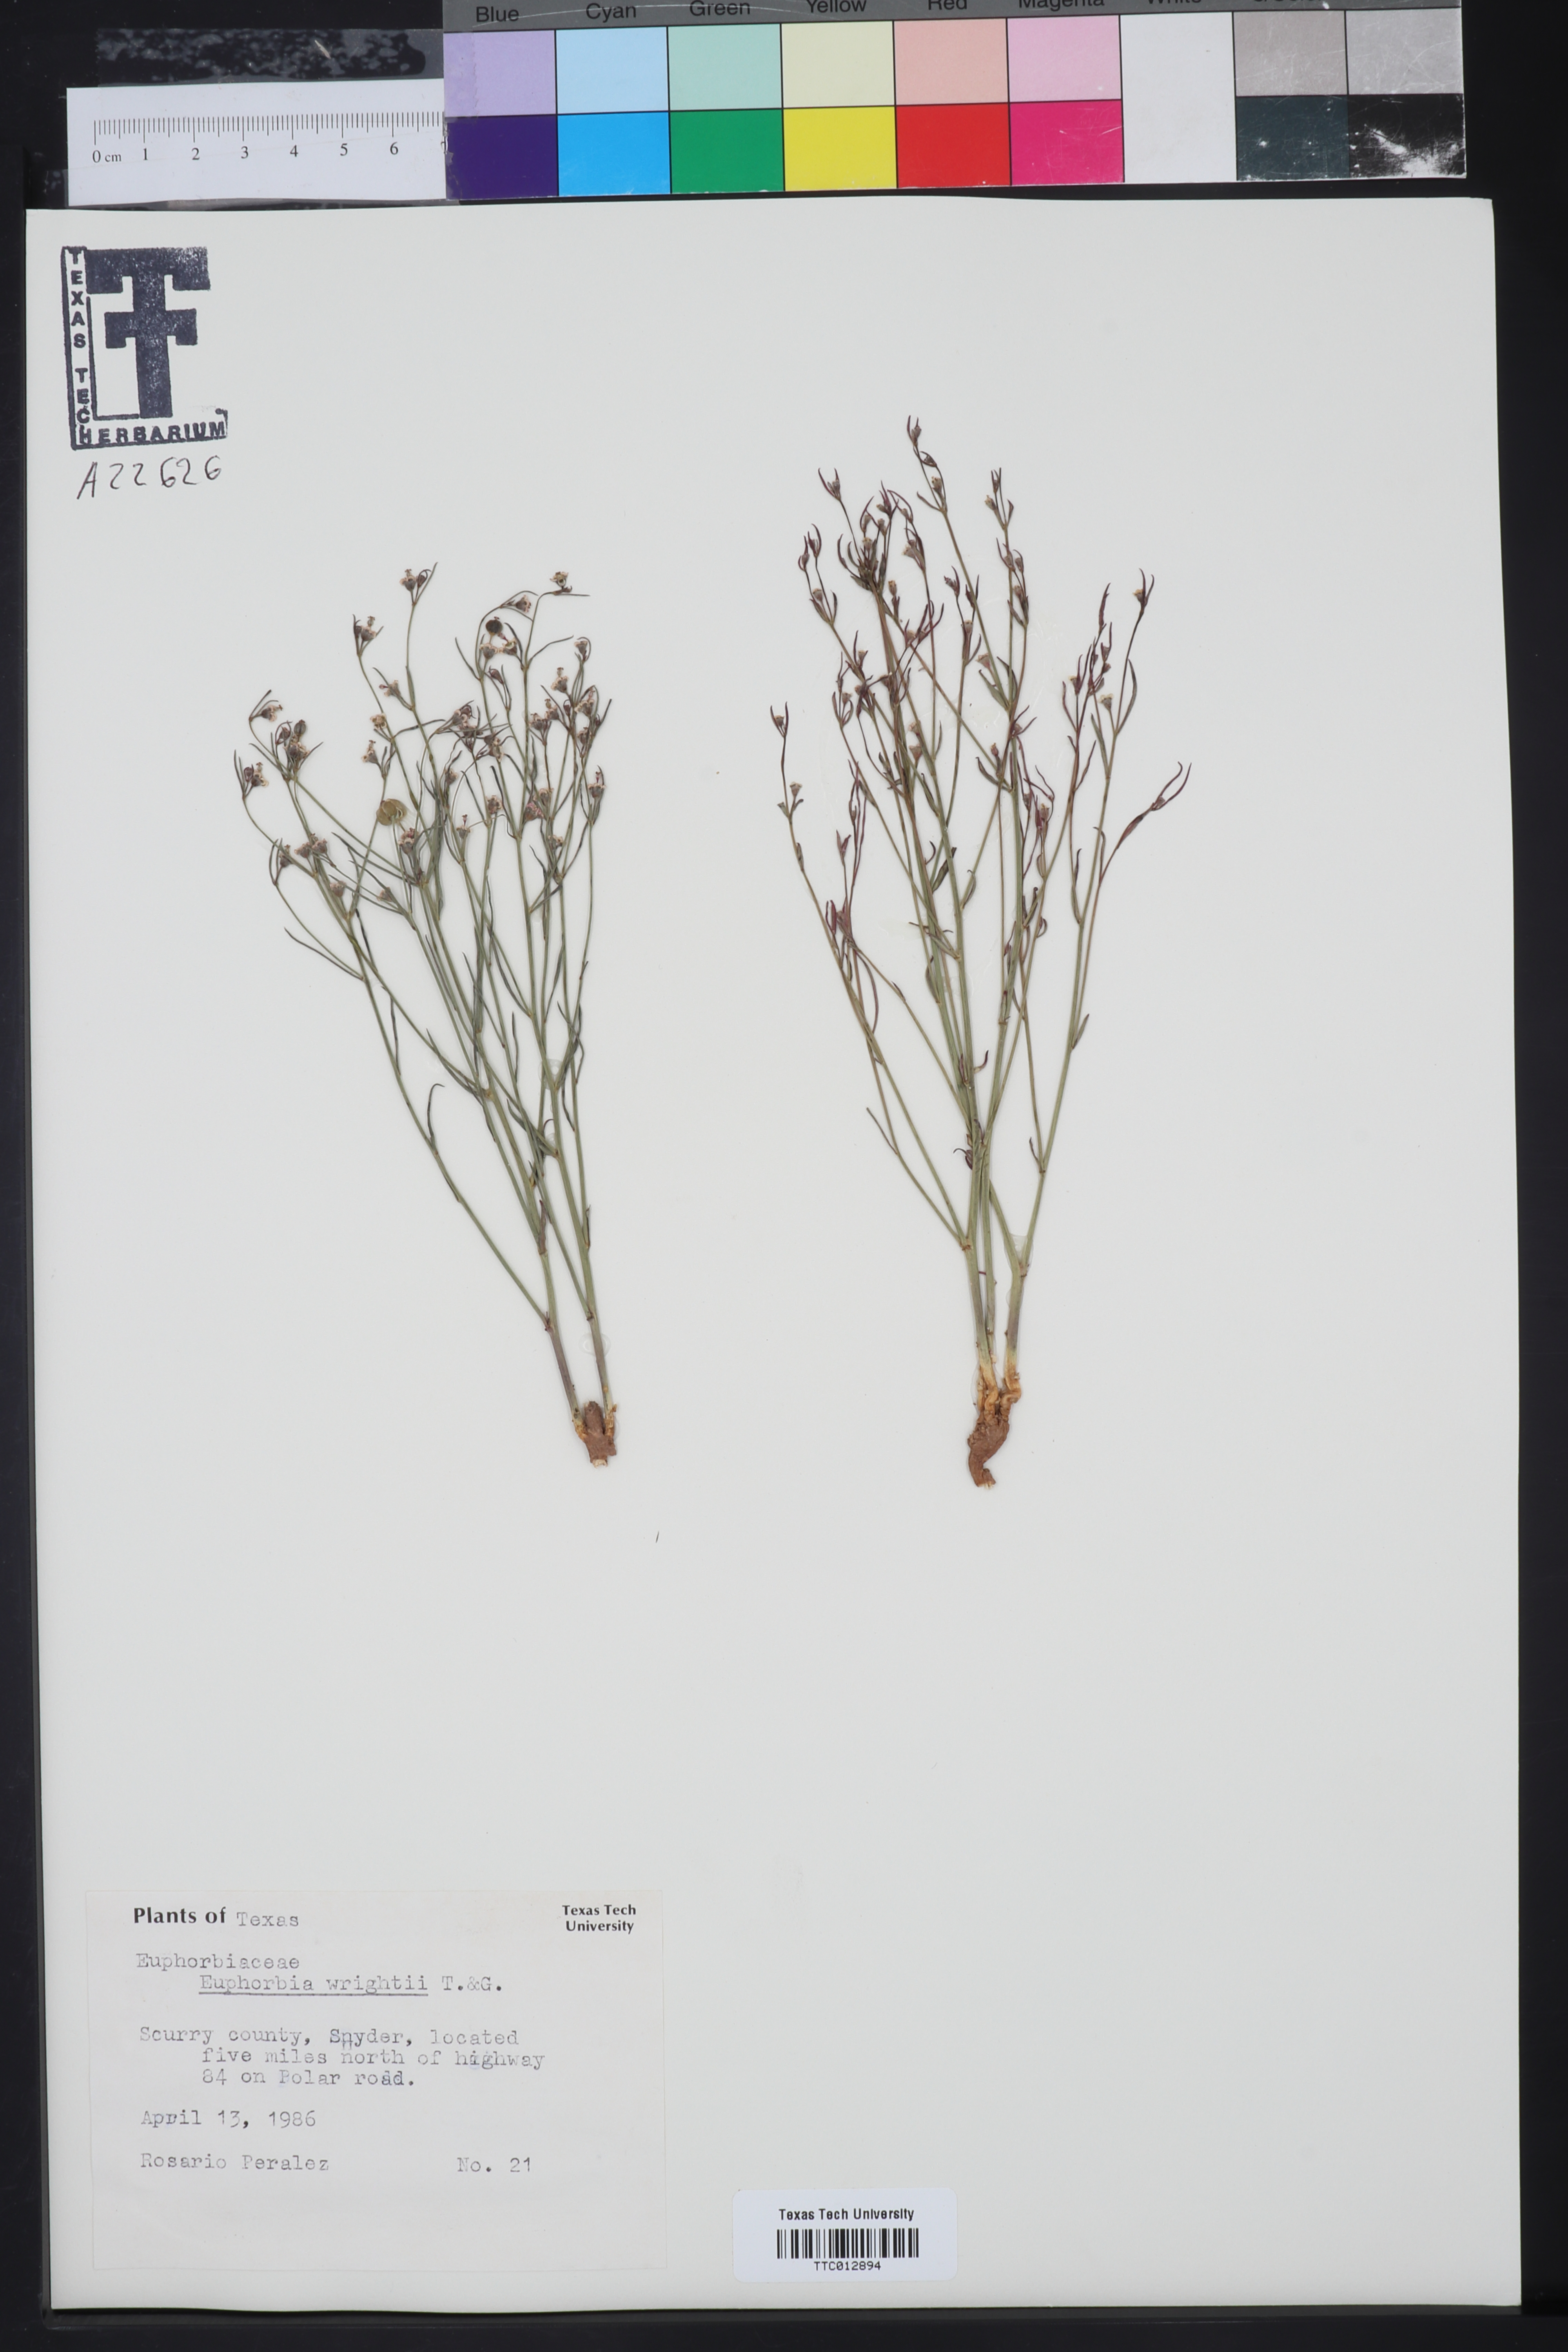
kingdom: Plantae
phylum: Tracheophyta
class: Magnoliopsida
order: Malpighiales
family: Euphorbiaceae
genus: Euphorbia
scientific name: Euphorbia wrightii
